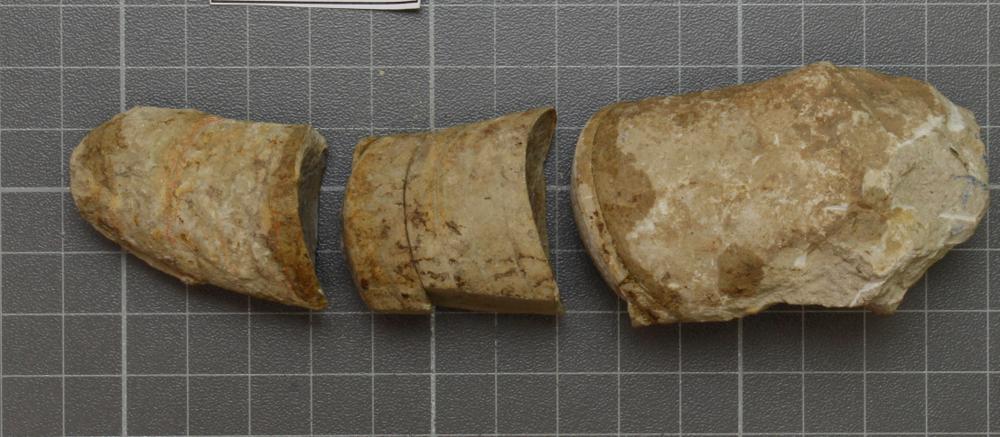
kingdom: Animalia
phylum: Mollusca
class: Cephalopoda
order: Nautilida
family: Nautilidae
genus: Richardsonoceras
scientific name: Richardsonoceras sinuososeptatum
